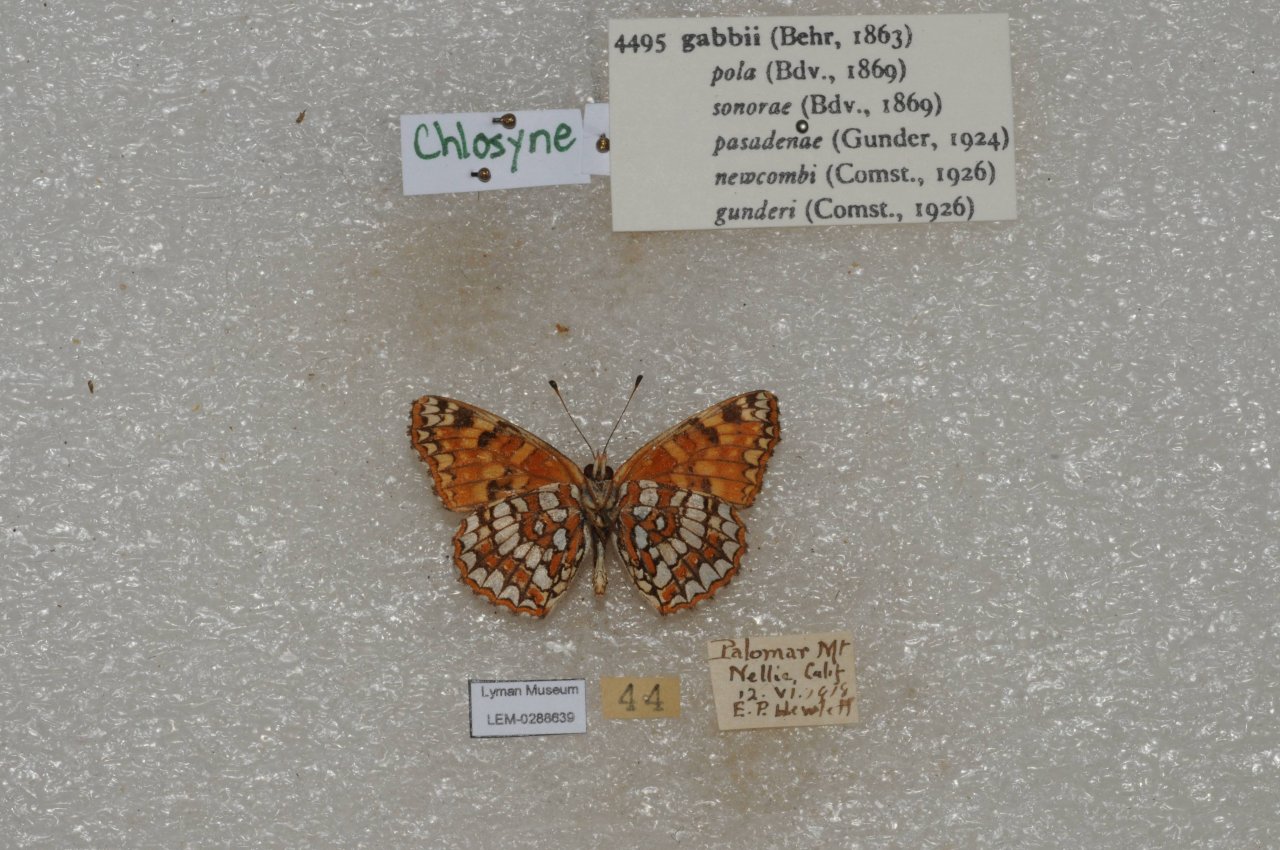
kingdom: Animalia
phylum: Arthropoda
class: Insecta
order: Lepidoptera
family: Nymphalidae
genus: Chlosyne
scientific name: Chlosyne gabbii
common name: Gabb's Checkerspot
